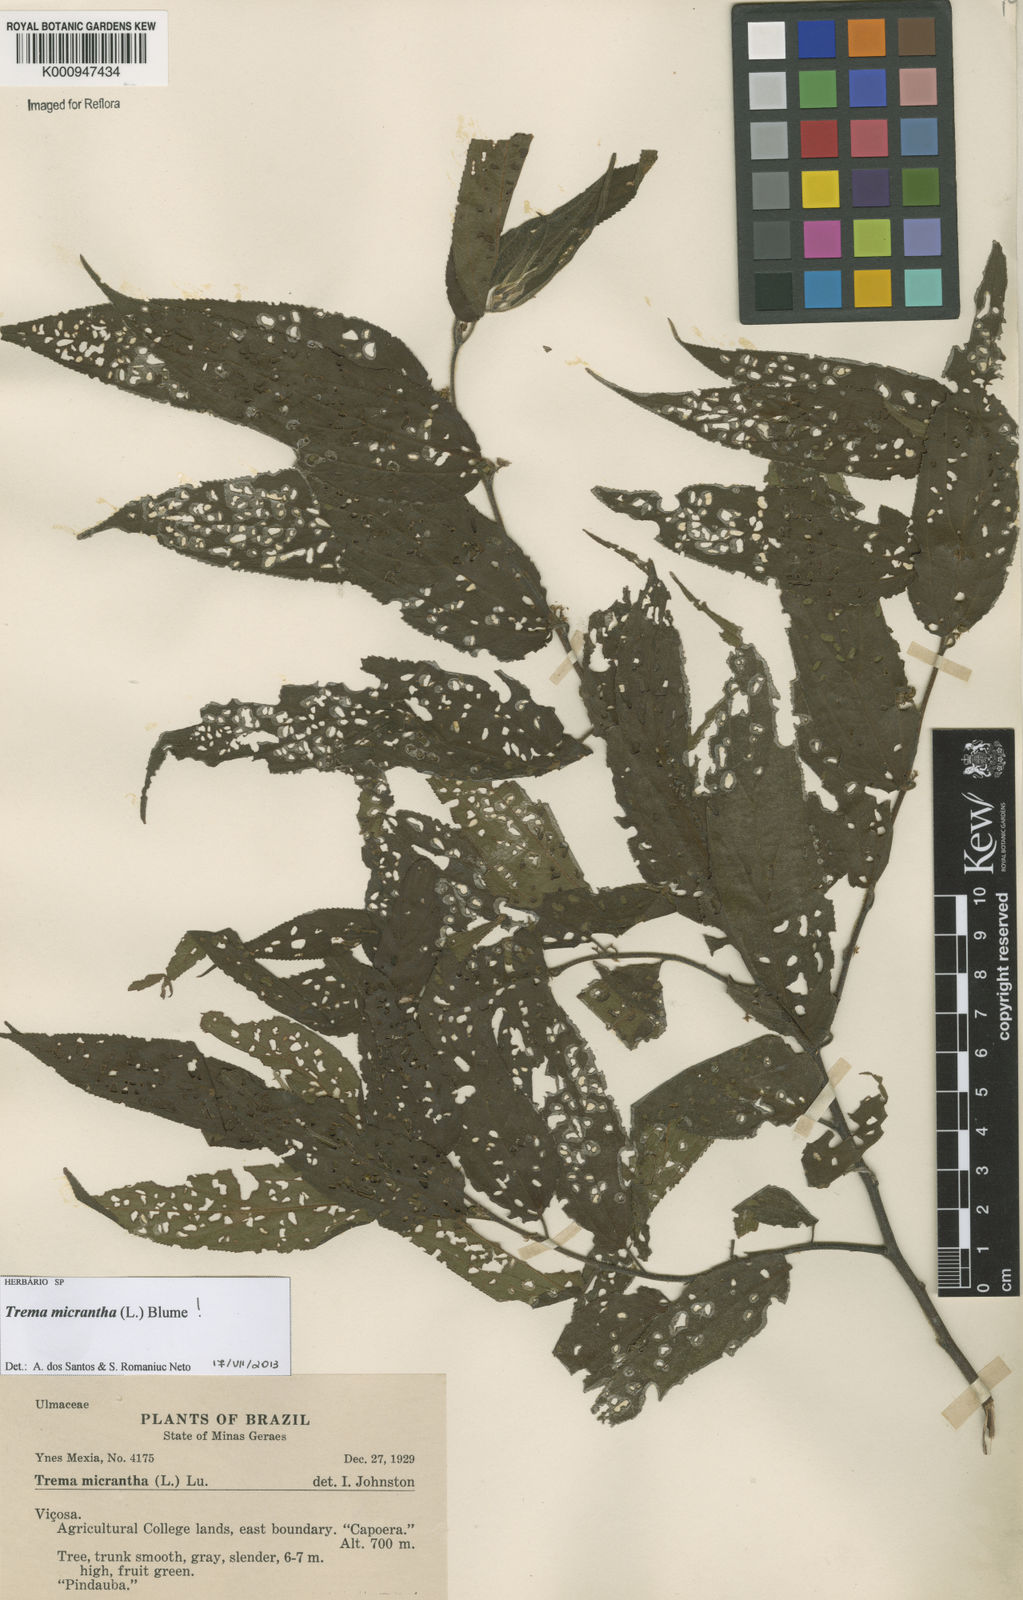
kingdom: Plantae
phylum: Tracheophyta
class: Magnoliopsida
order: Rosales
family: Cannabaceae
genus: Trema
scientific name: Trema micranthum
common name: Jamaican nettletree
